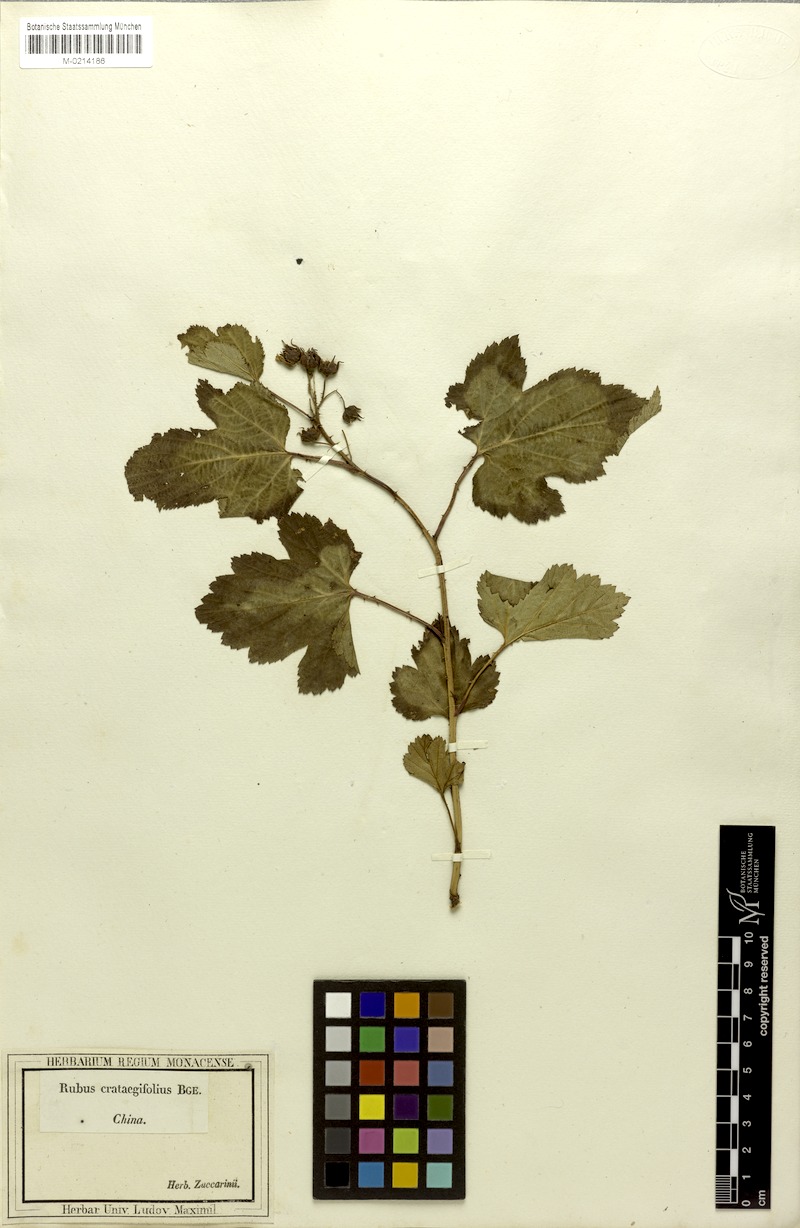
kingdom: Plantae
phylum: Tracheophyta
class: Magnoliopsida
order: Rosales
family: Rosaceae
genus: Rubus
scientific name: Rubus crataegifolius
